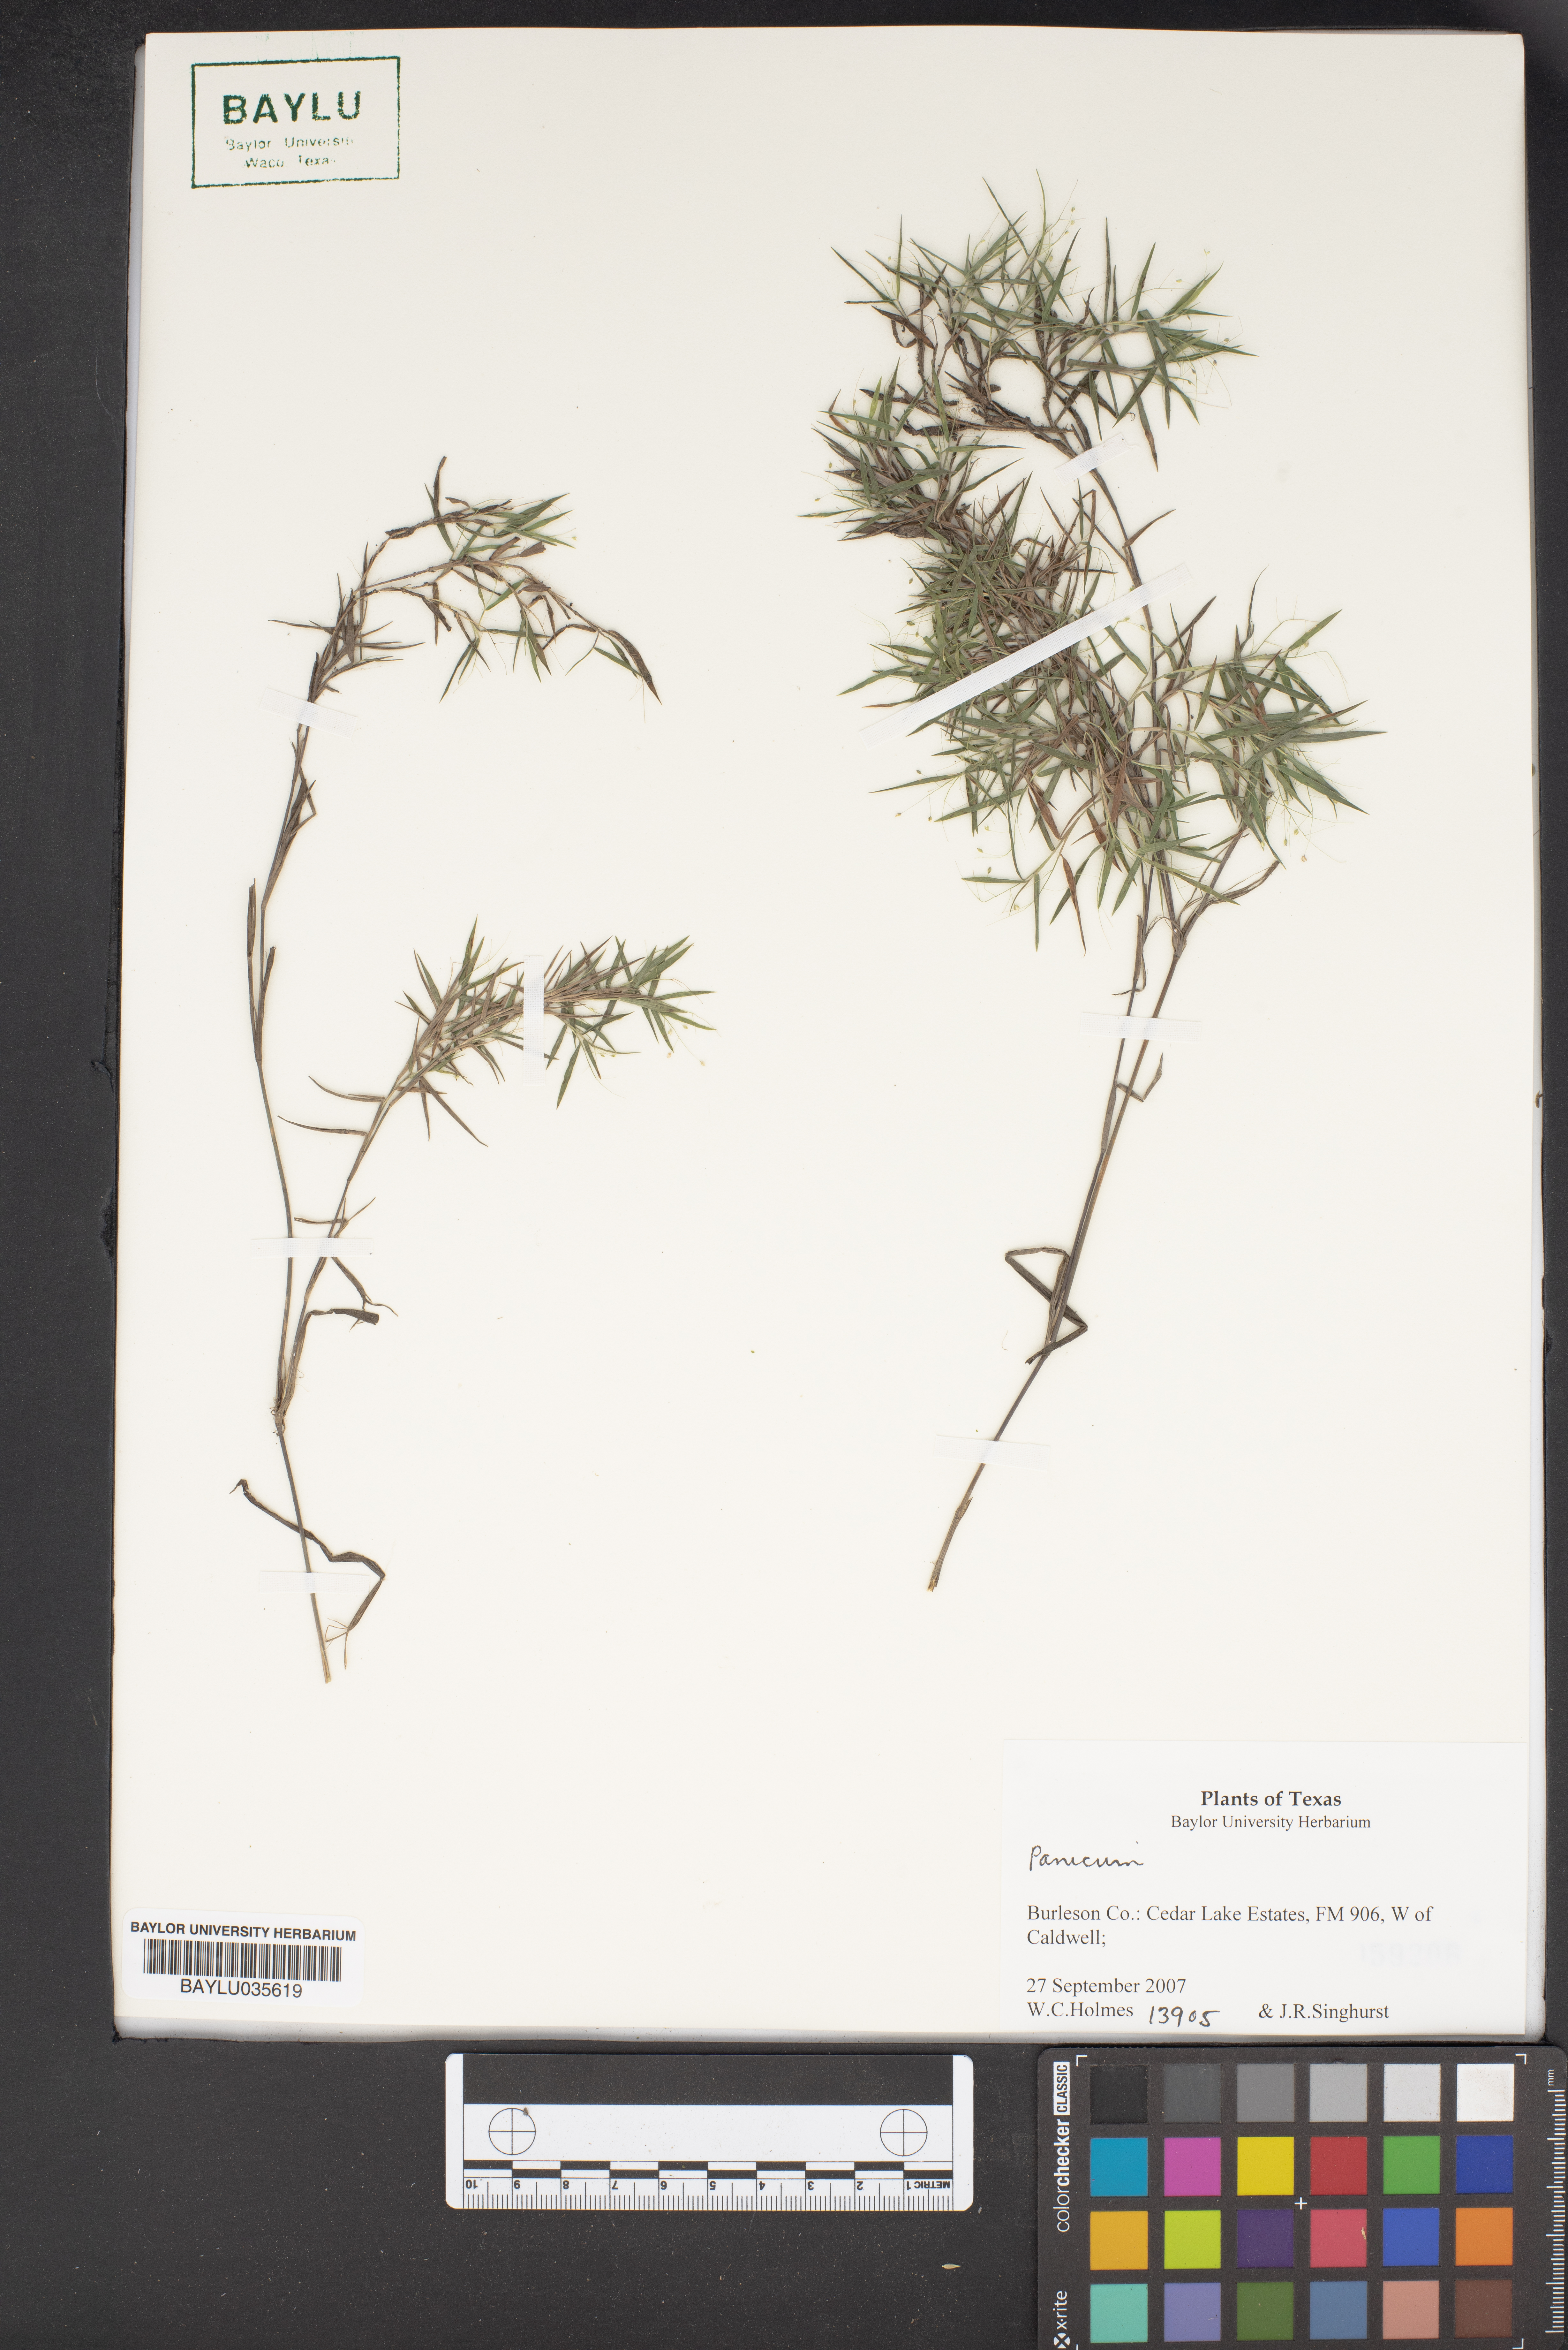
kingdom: Plantae
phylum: Tracheophyta
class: Liliopsida
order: Poales
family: Poaceae
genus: Panicum
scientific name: Panicum
